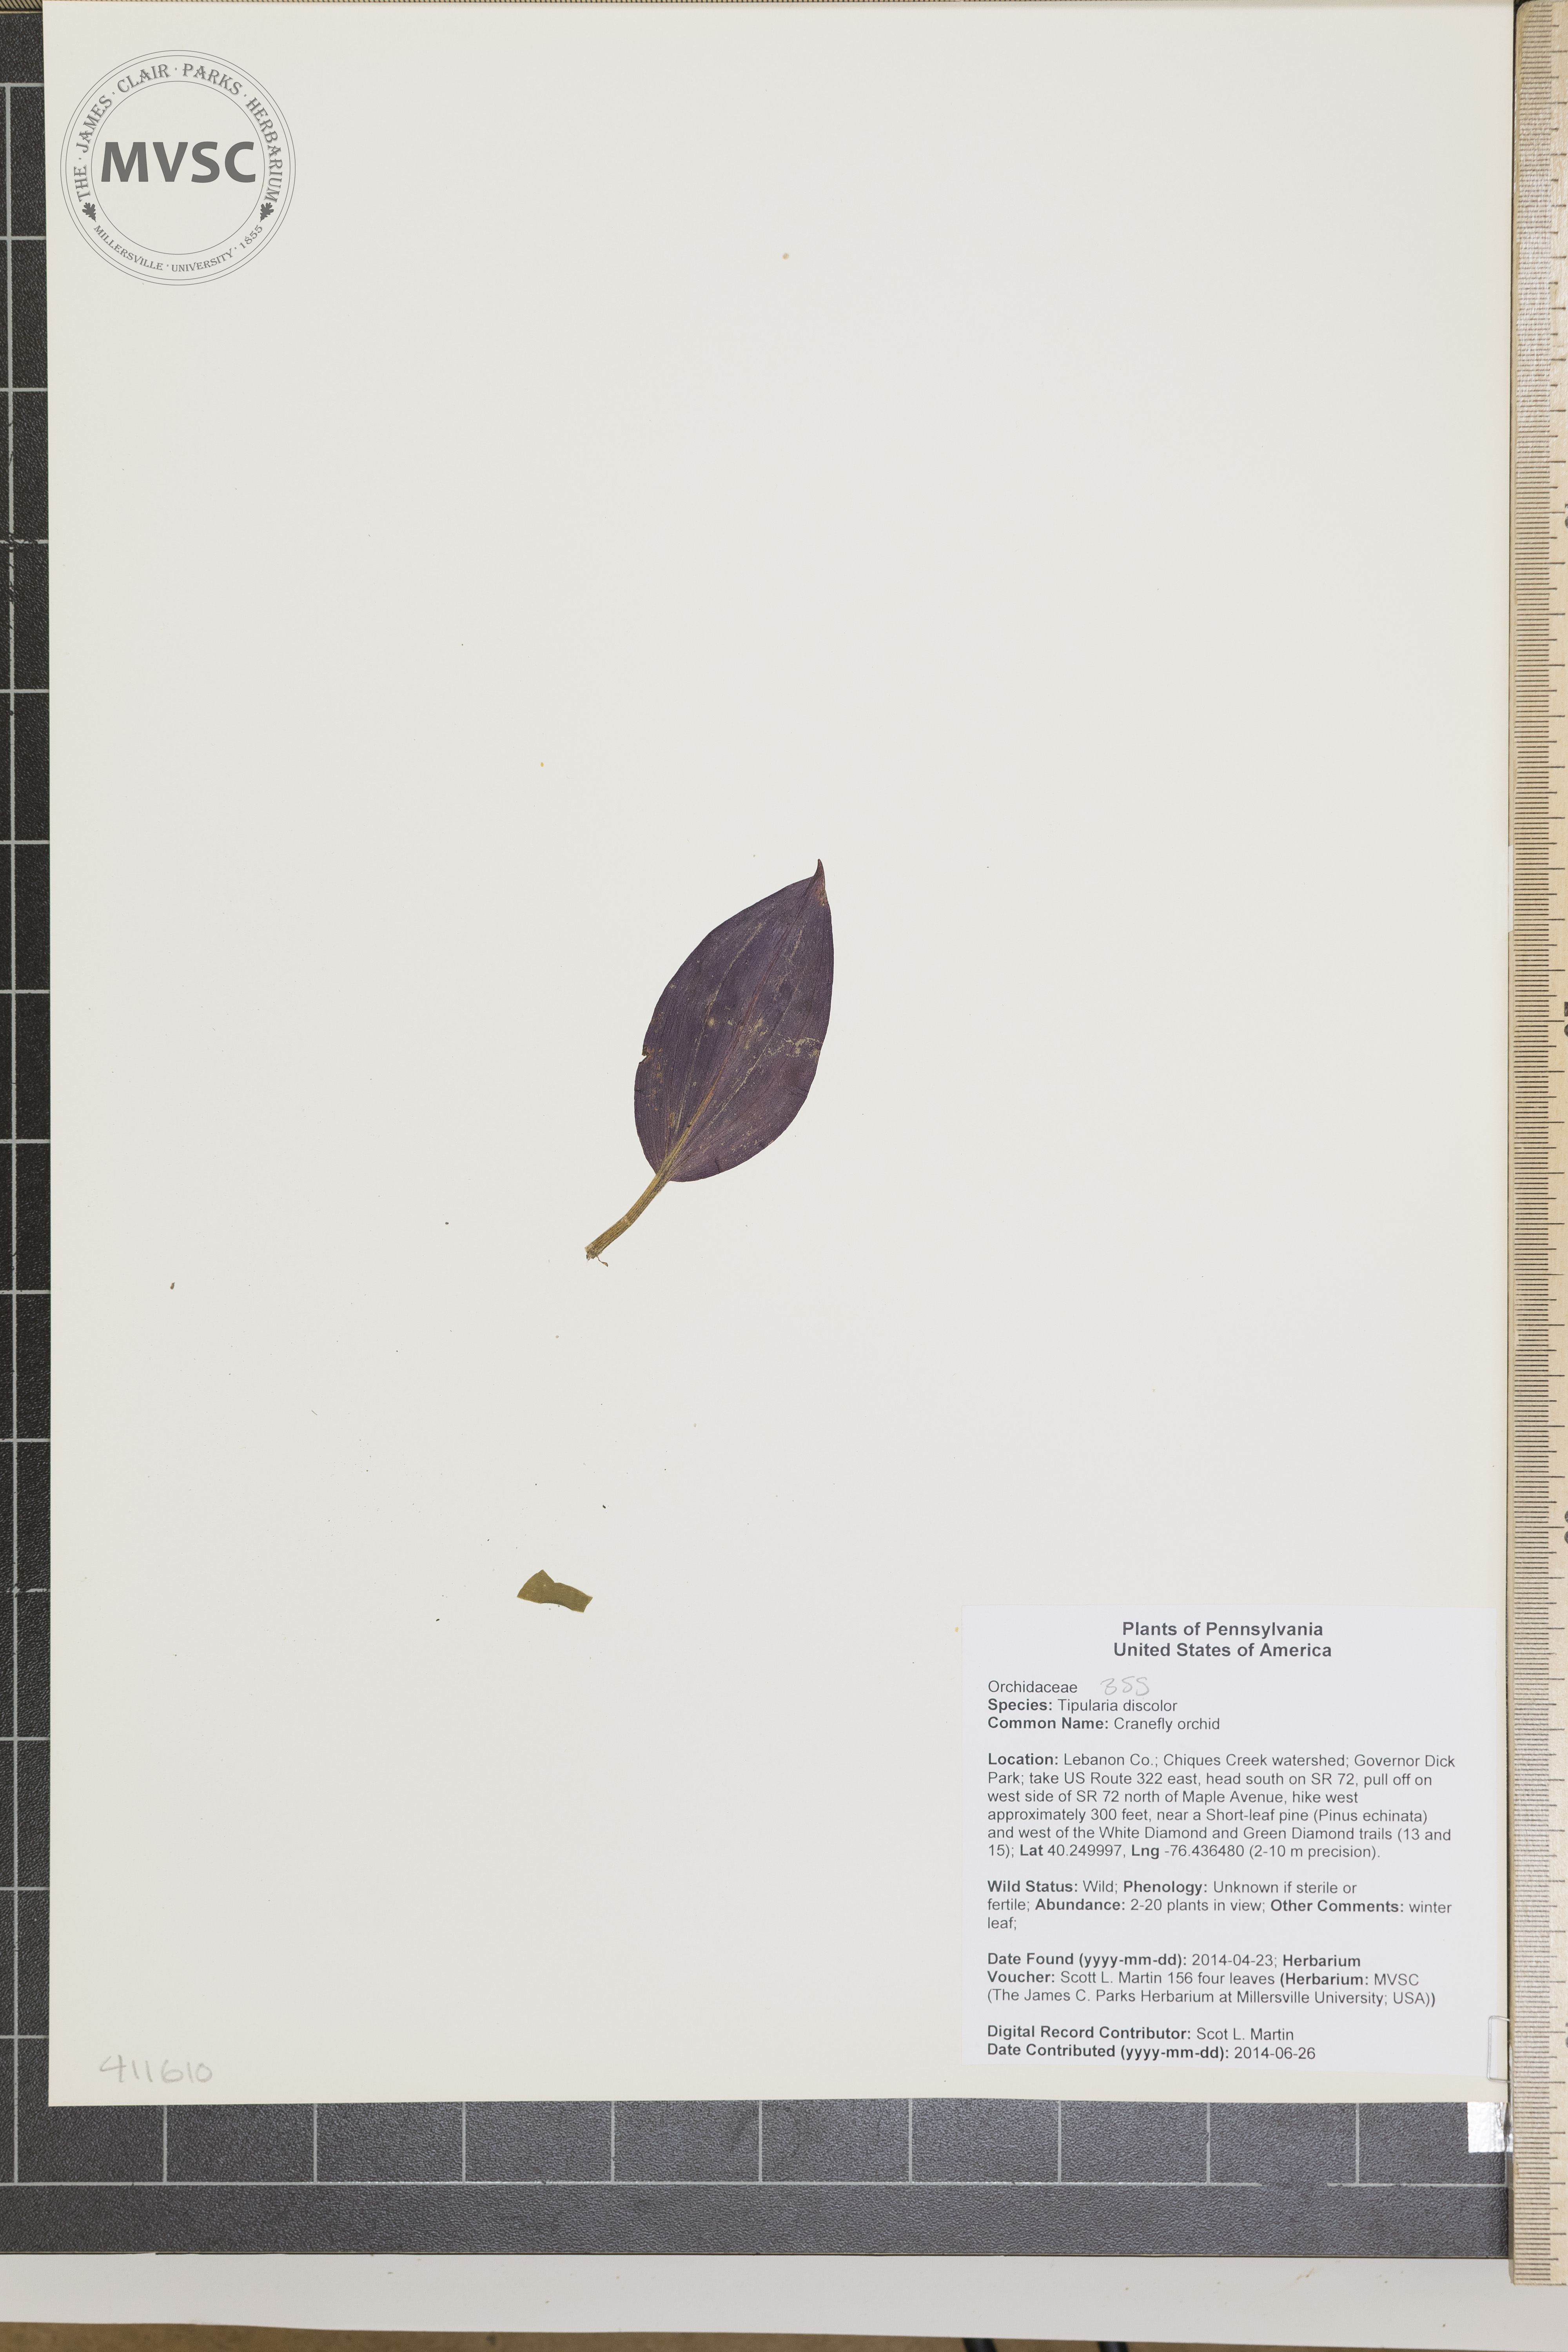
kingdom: Plantae
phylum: Tracheophyta
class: Liliopsida
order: Asparagales
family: Orchidaceae
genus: Tipularia
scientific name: Tipularia discolor
